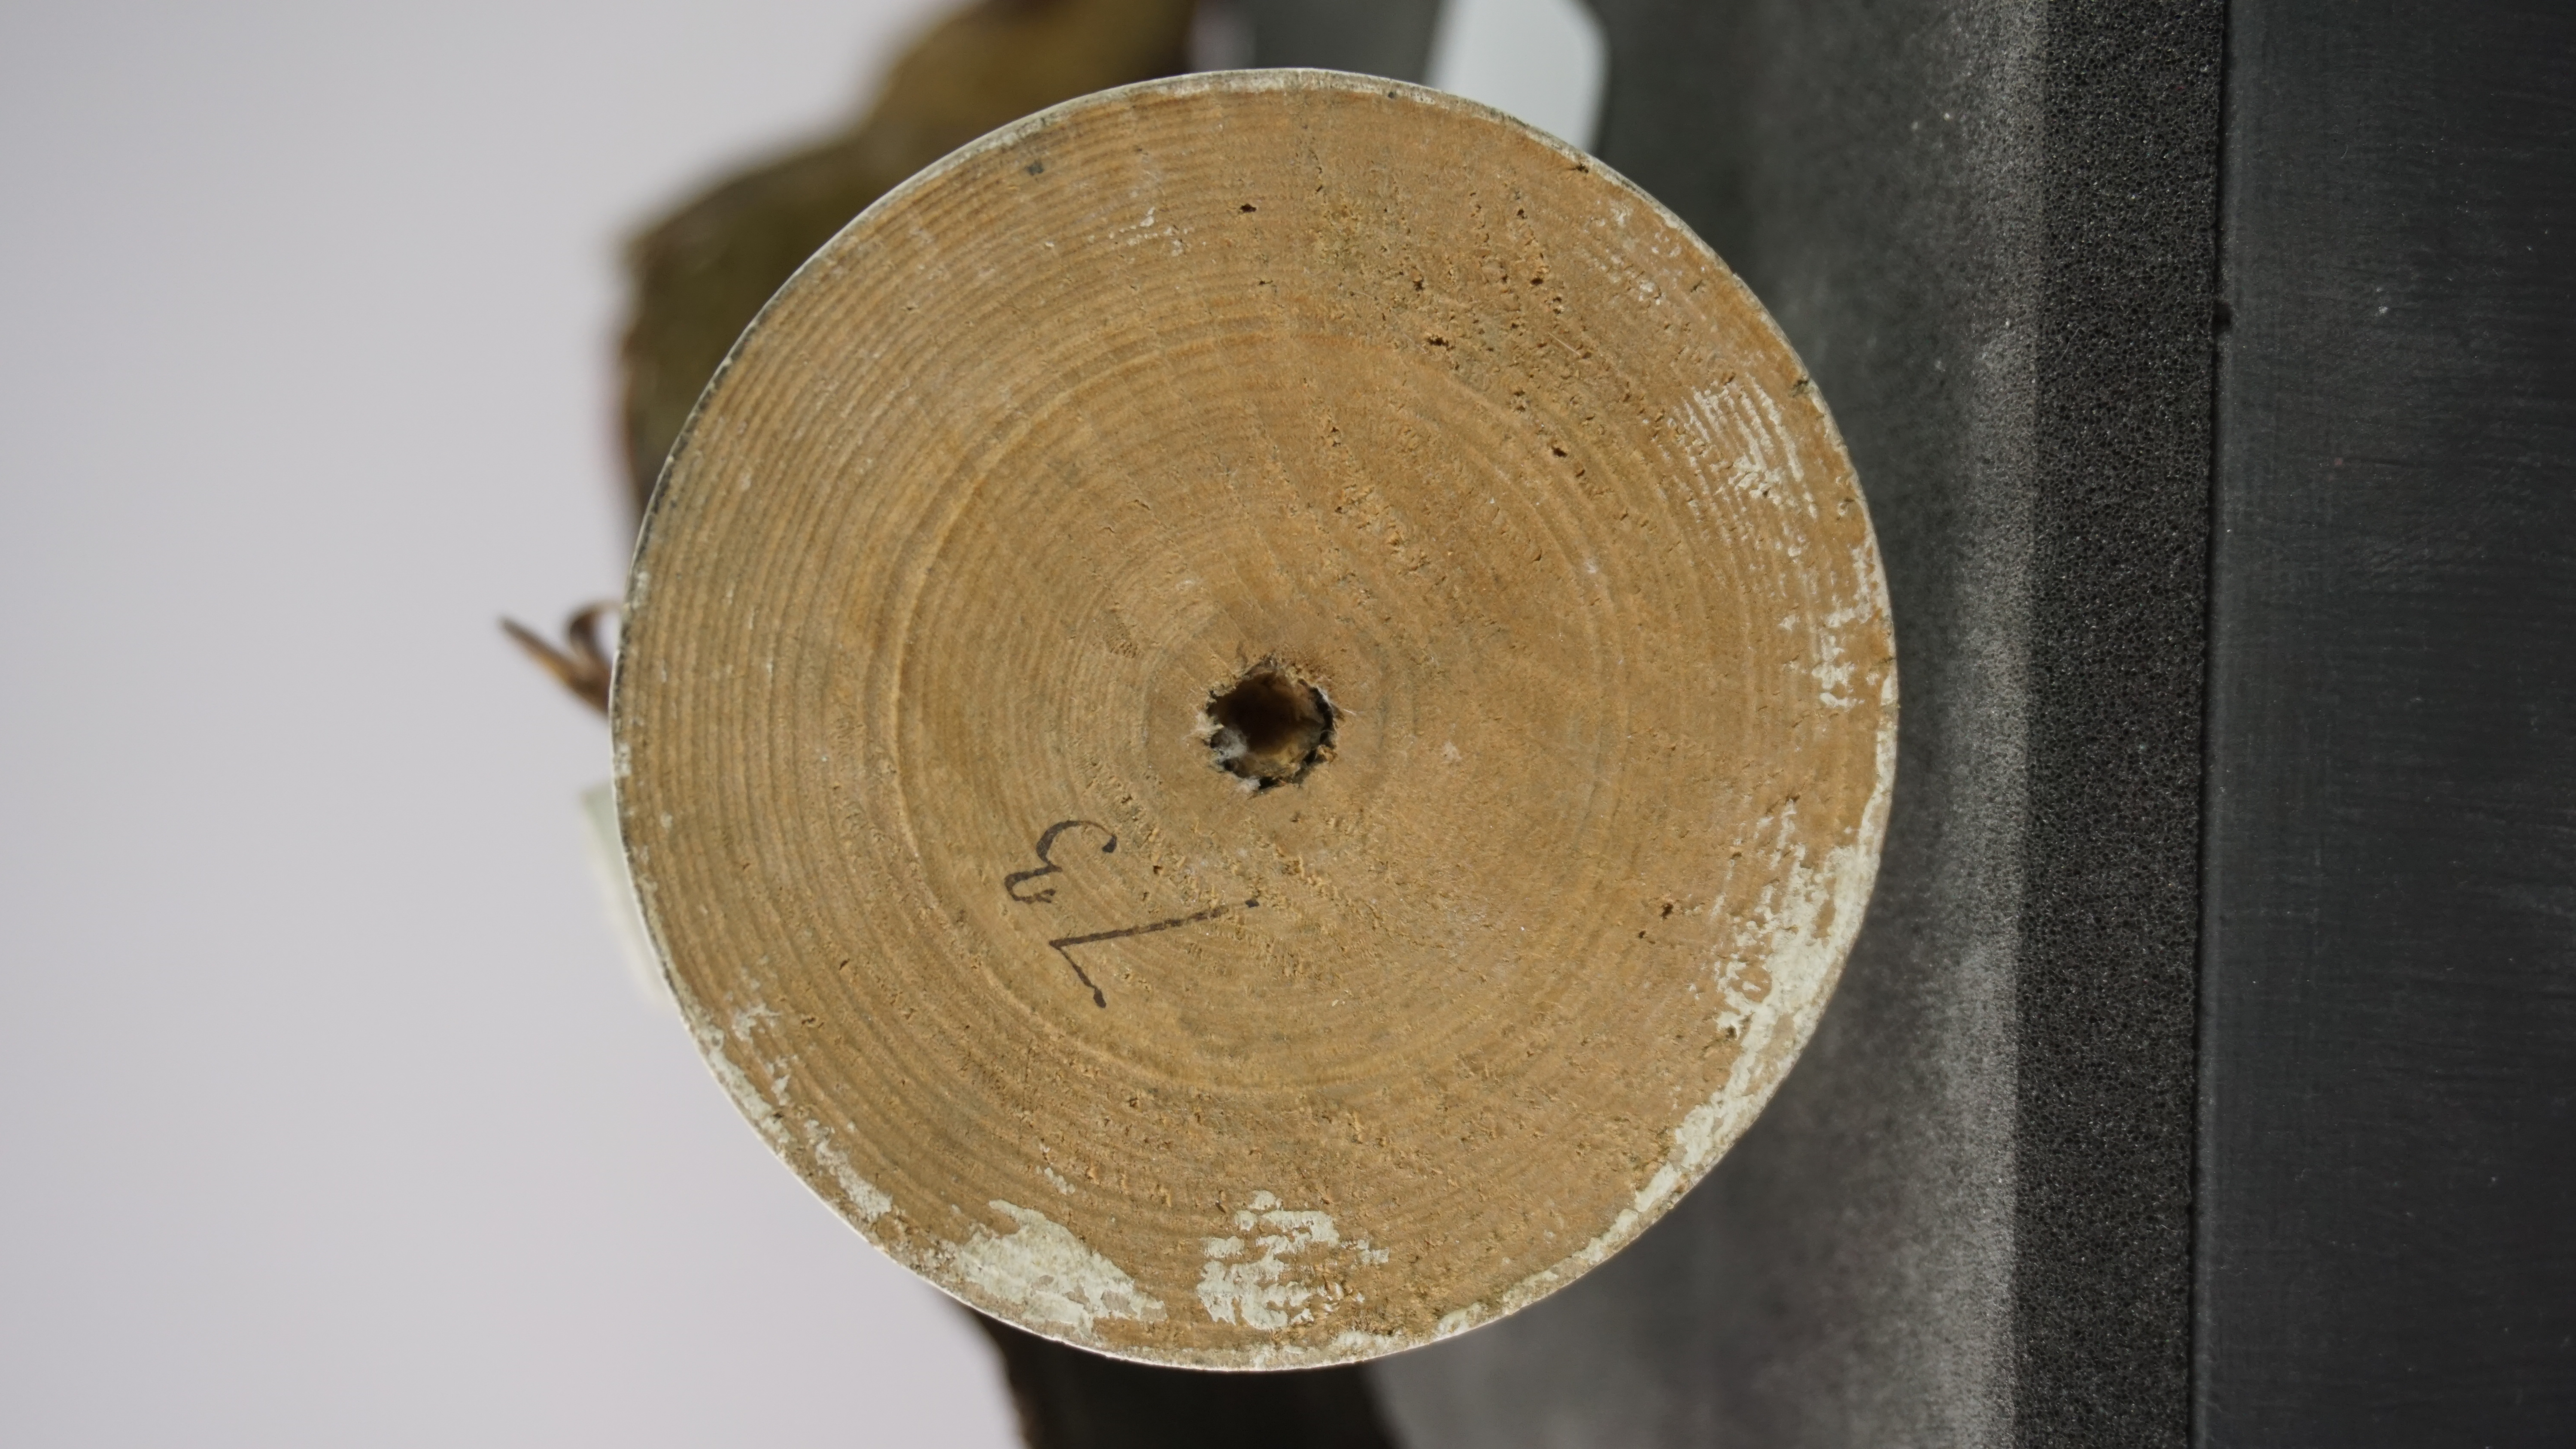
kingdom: Animalia
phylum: Chordata
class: Aves
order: Piciformes
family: Picidae
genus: Picus
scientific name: Picus puniceus
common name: Crimson-winged woodpecker
